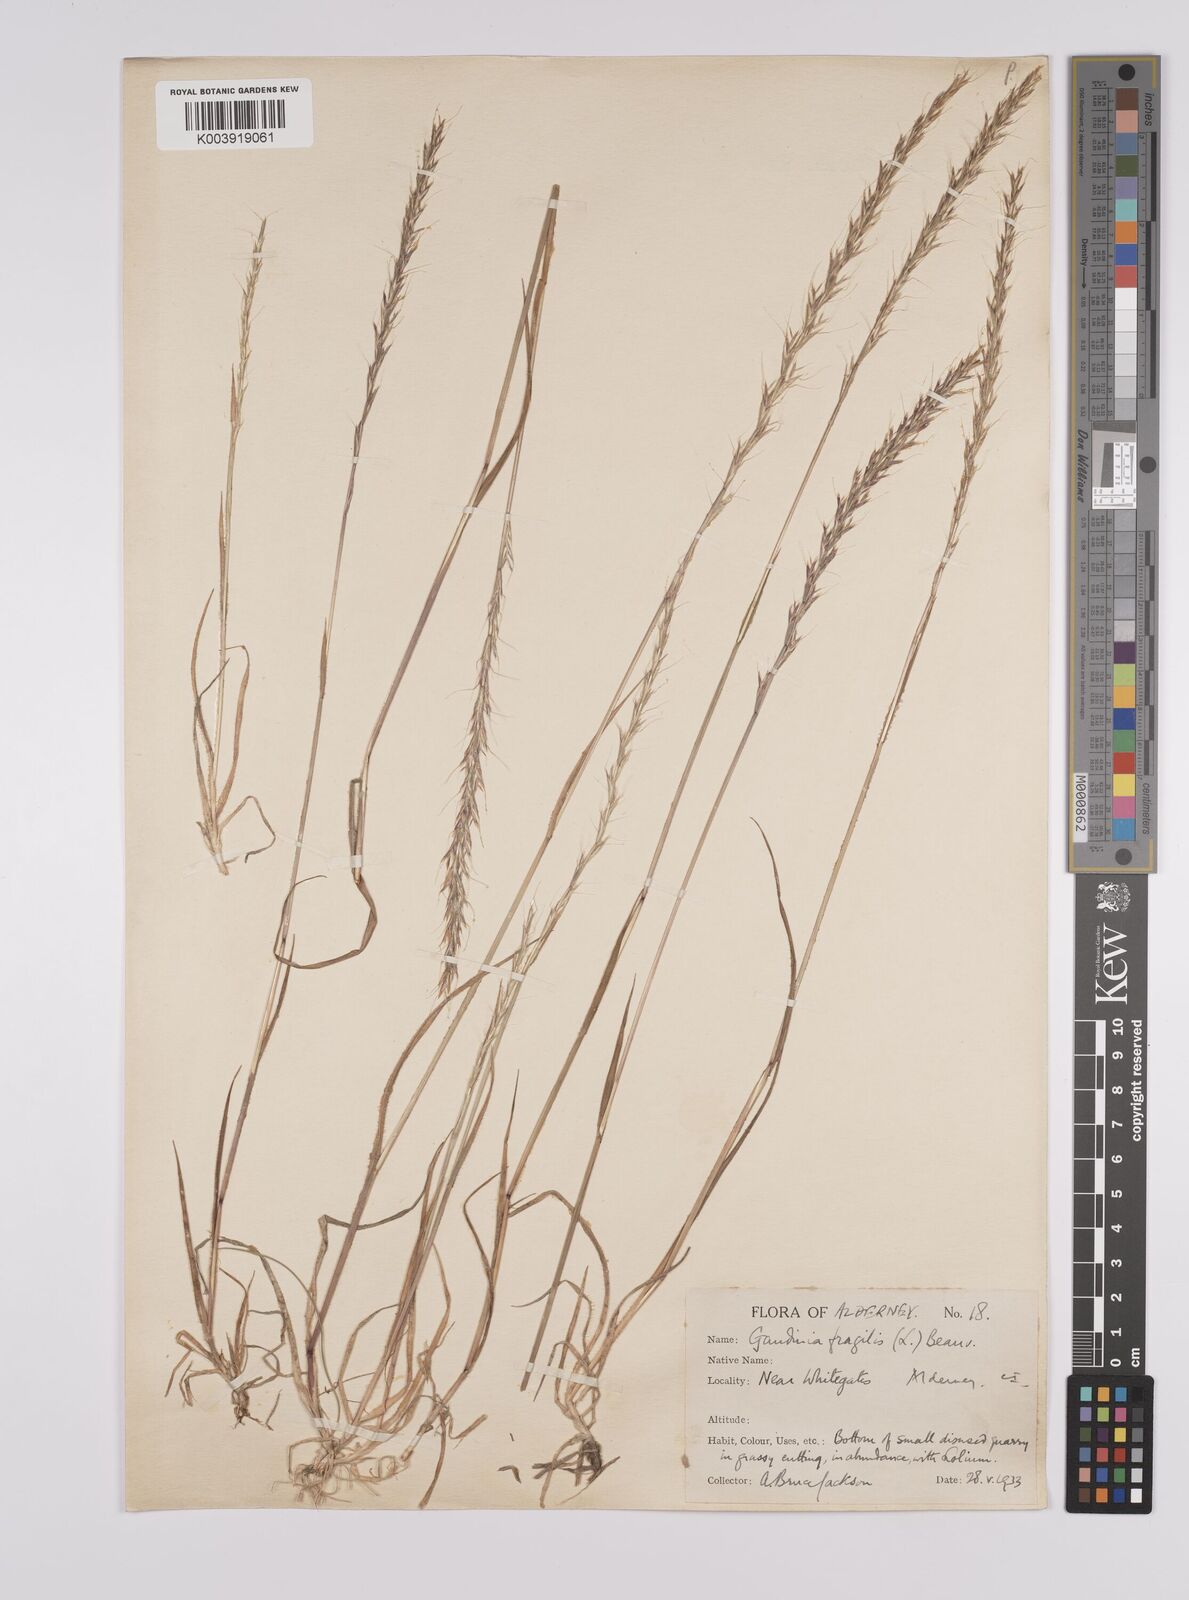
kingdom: Plantae
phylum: Tracheophyta
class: Liliopsida
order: Poales
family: Poaceae
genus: Gaudinia
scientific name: Gaudinia fragilis
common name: French oat-grass
